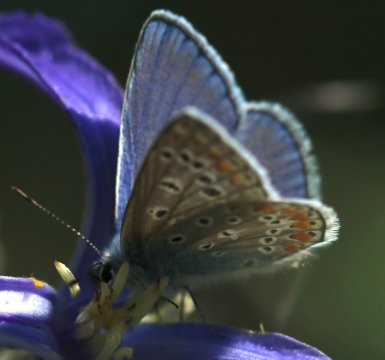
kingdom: Animalia
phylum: Arthropoda
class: Insecta
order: Lepidoptera
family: Lycaenidae
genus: Polyommatus
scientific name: Polyommatus icarus
